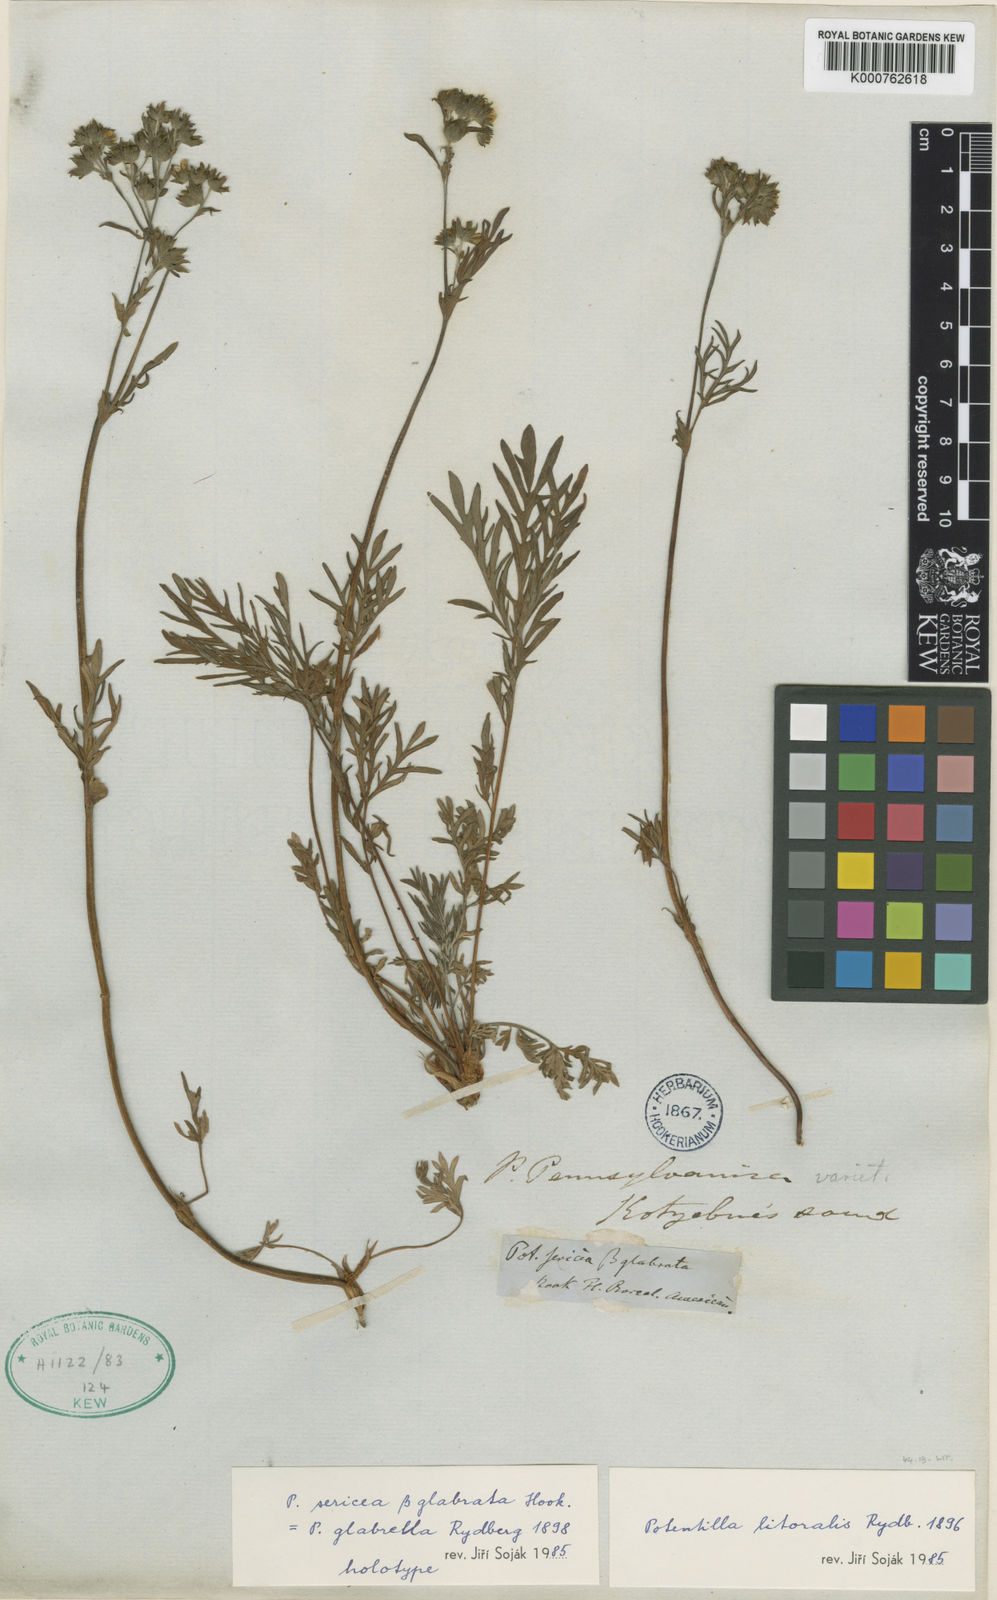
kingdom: Plantae
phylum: Tracheophyta
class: Magnoliopsida
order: Rosales
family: Rosaceae
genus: Potentilla
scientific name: Potentilla litoralis
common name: Coast cinquefoil
